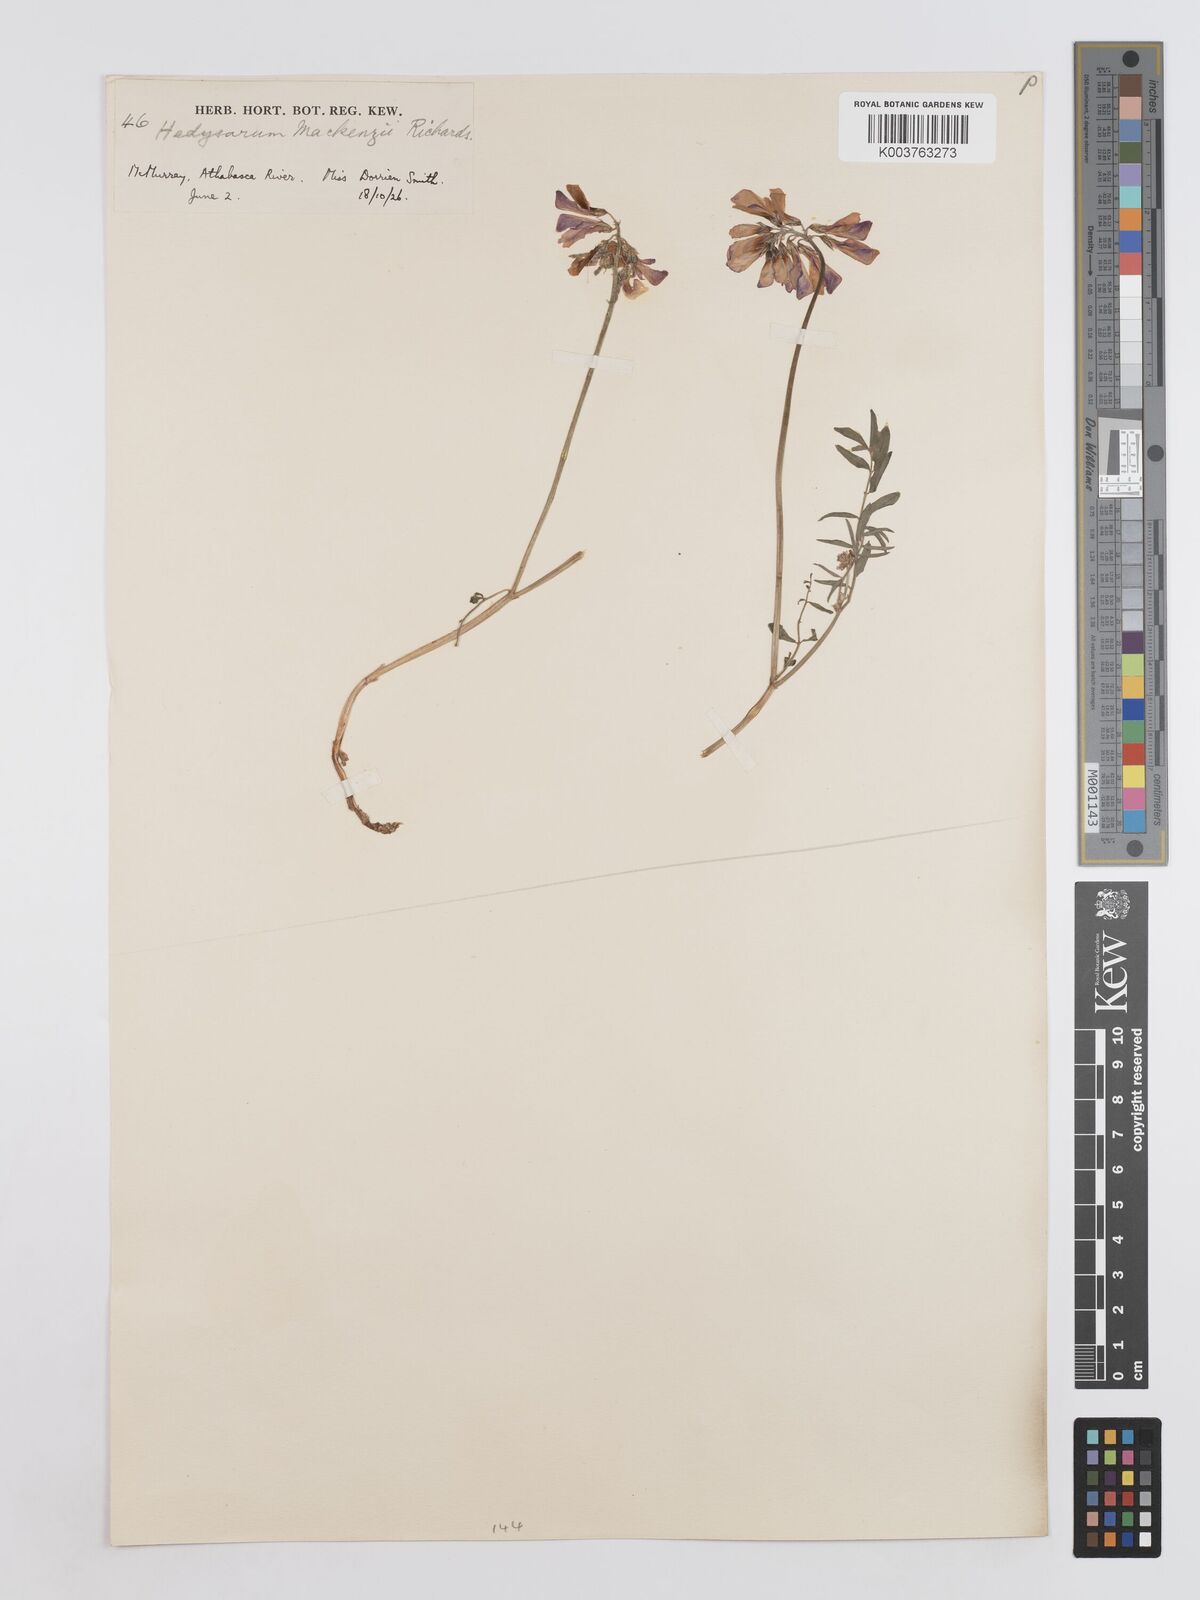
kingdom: Plantae
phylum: Tracheophyta
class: Magnoliopsida
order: Fabales
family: Fabaceae
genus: Hedysarum
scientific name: Hedysarum boreale
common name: Northern sweet-vetch
